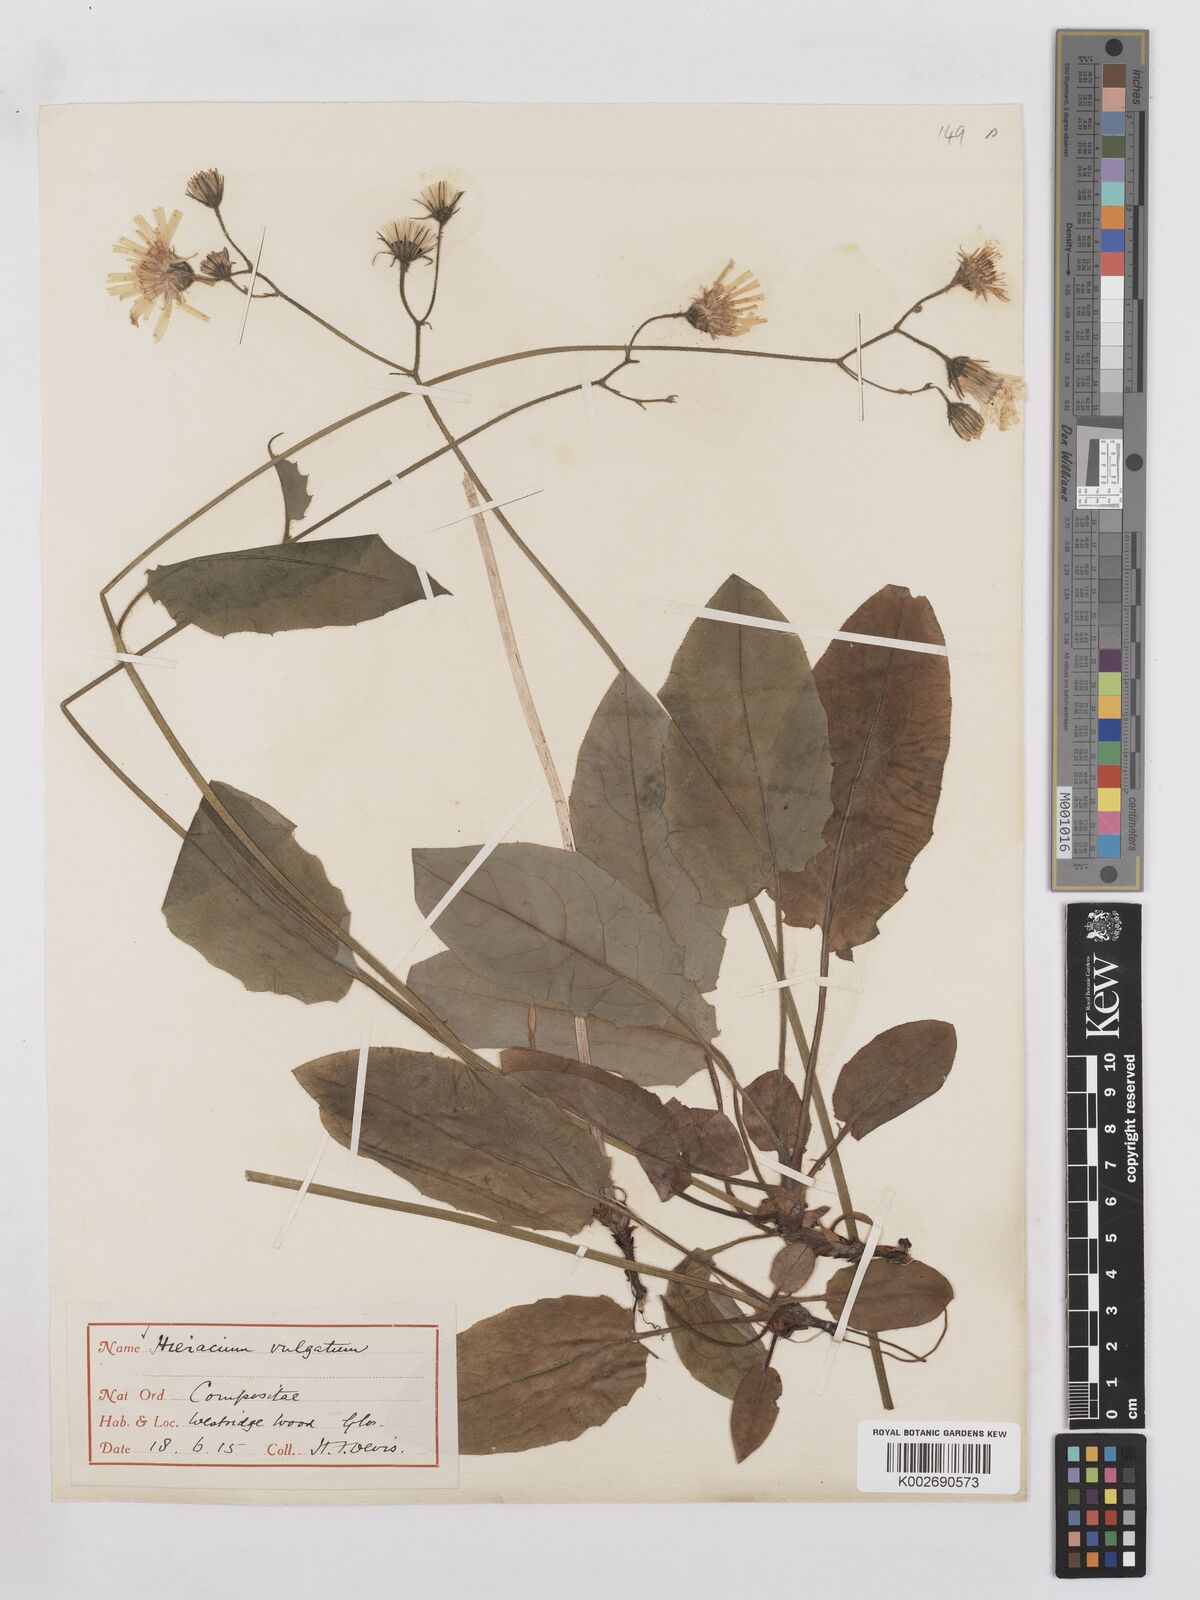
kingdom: Plantae
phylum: Tracheophyta
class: Magnoliopsida
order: Asterales
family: Asteraceae
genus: Hieracium
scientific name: Hieracium subbritannicum
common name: Limestone hawkweed
